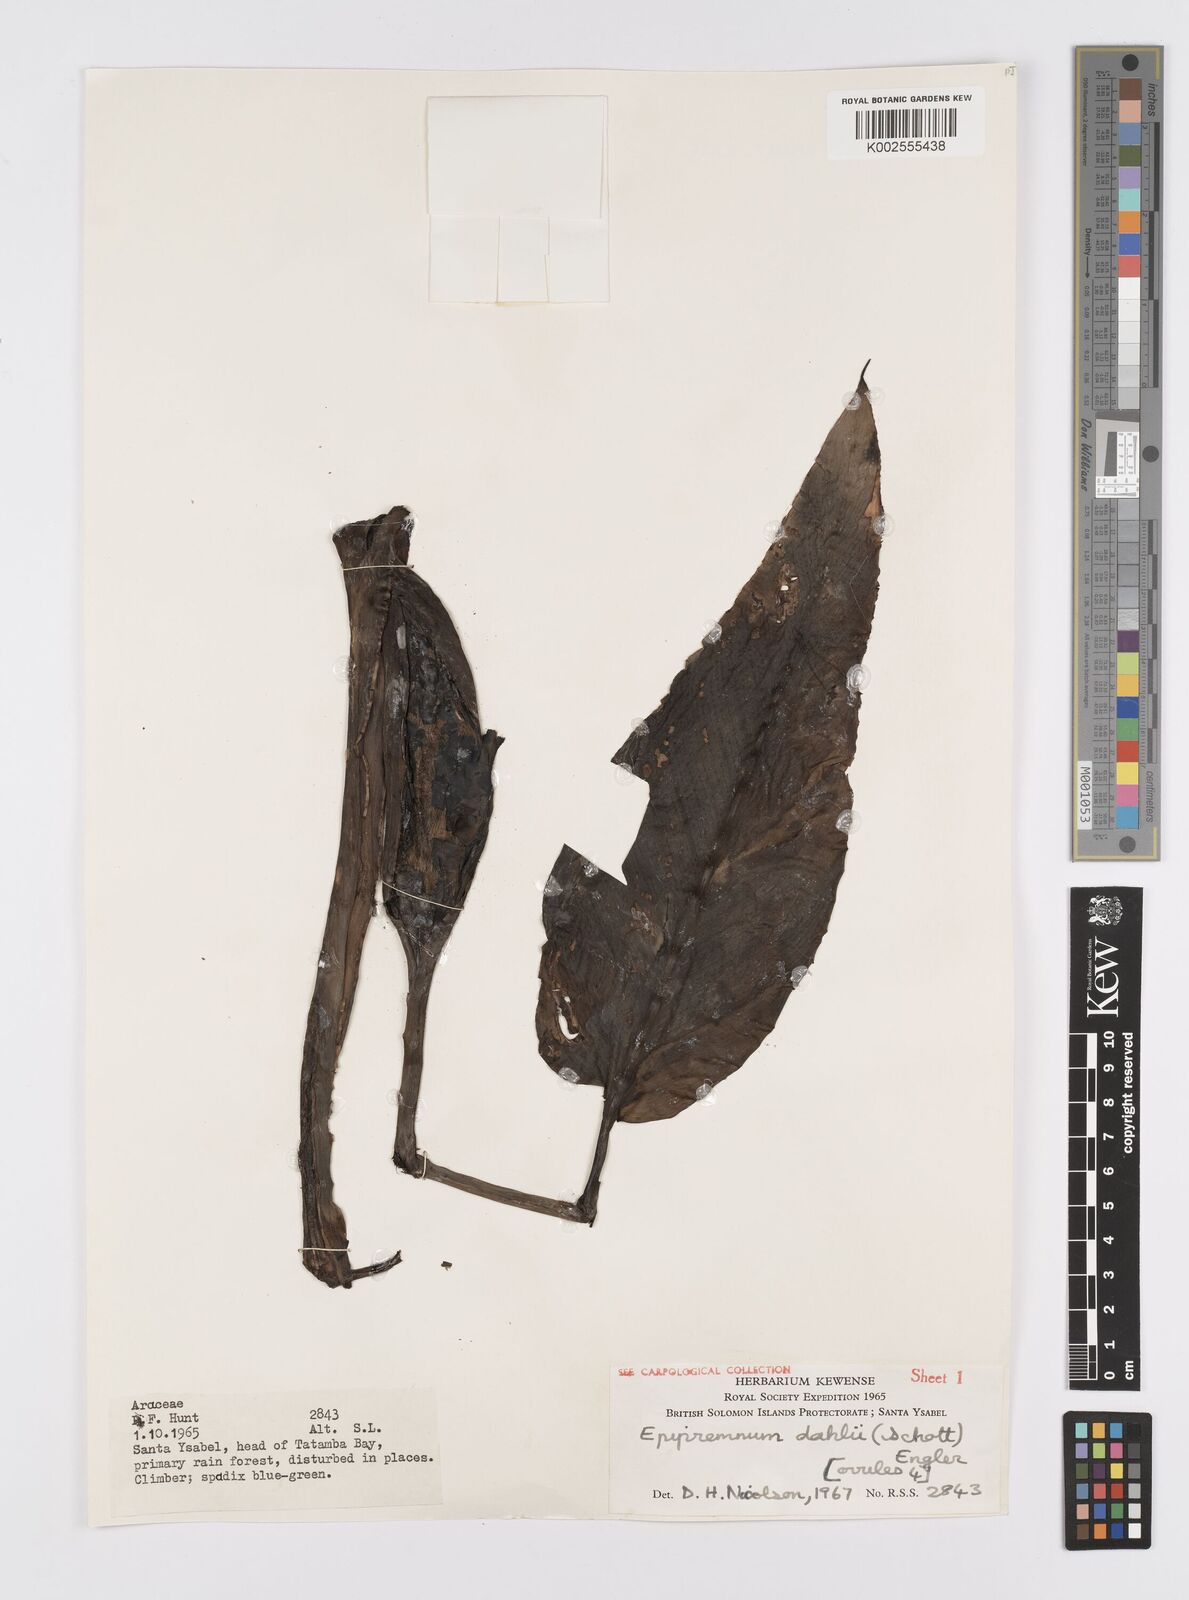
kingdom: Plantae
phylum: Tracheophyta
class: Liliopsida
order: Alismatales
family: Araceae
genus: Epipremnum
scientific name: Epipremnum dahlii
